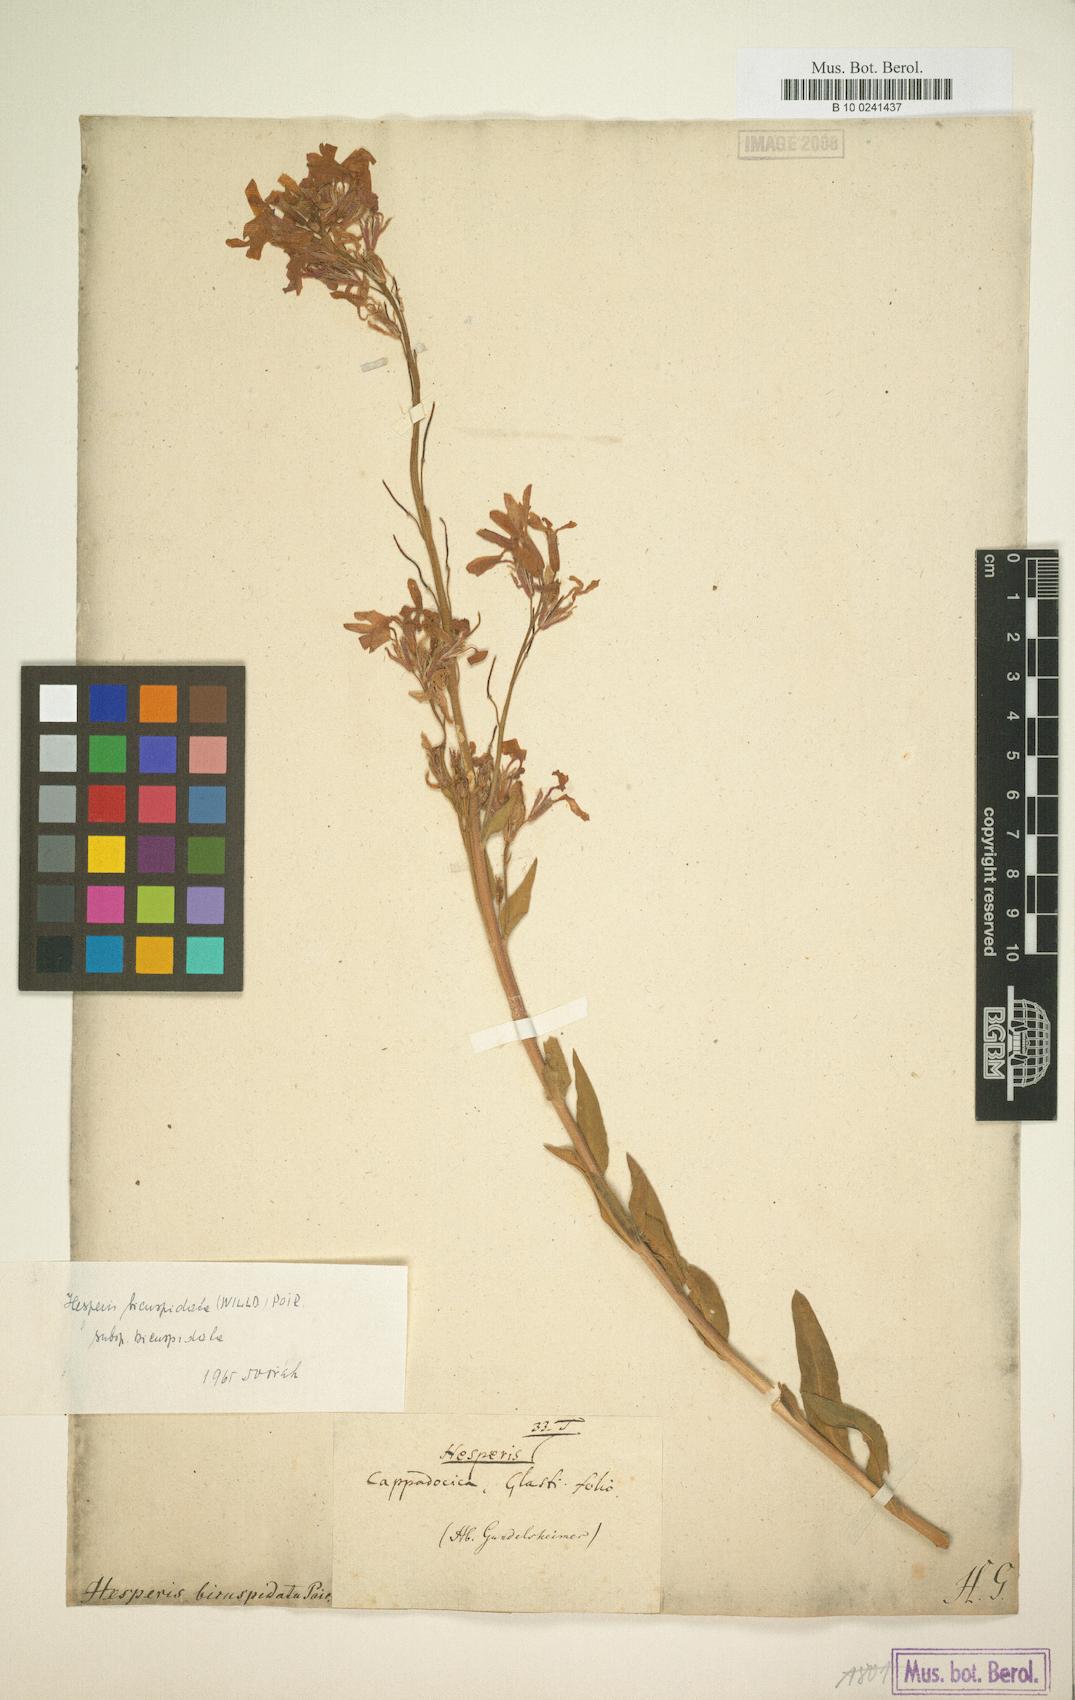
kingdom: Plantae
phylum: Tracheophyta
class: Magnoliopsida
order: Brassicales
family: Brassicaceae
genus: Hesperis
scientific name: Hesperis bicuspidata
